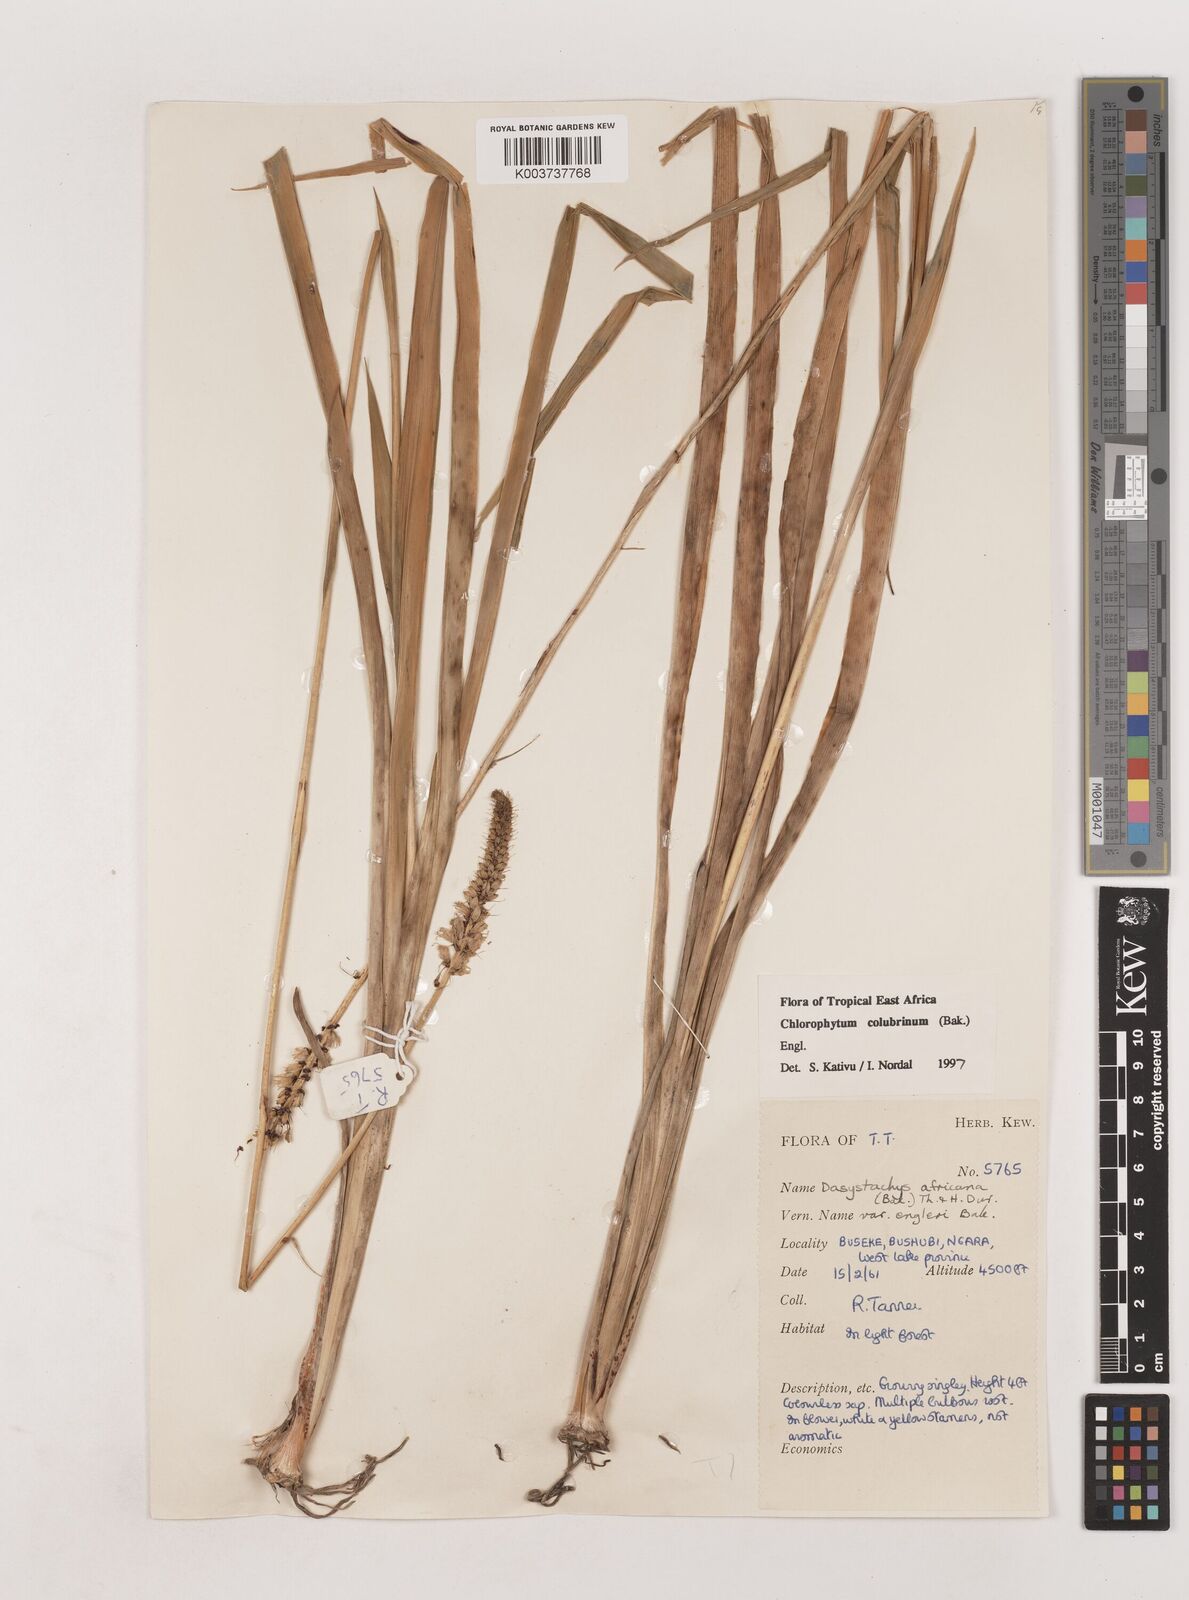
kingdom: Plantae
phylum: Tracheophyta
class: Liliopsida
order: Asparagales
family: Asparagaceae
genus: Chlorophytum
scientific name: Chlorophytum colubrinum
